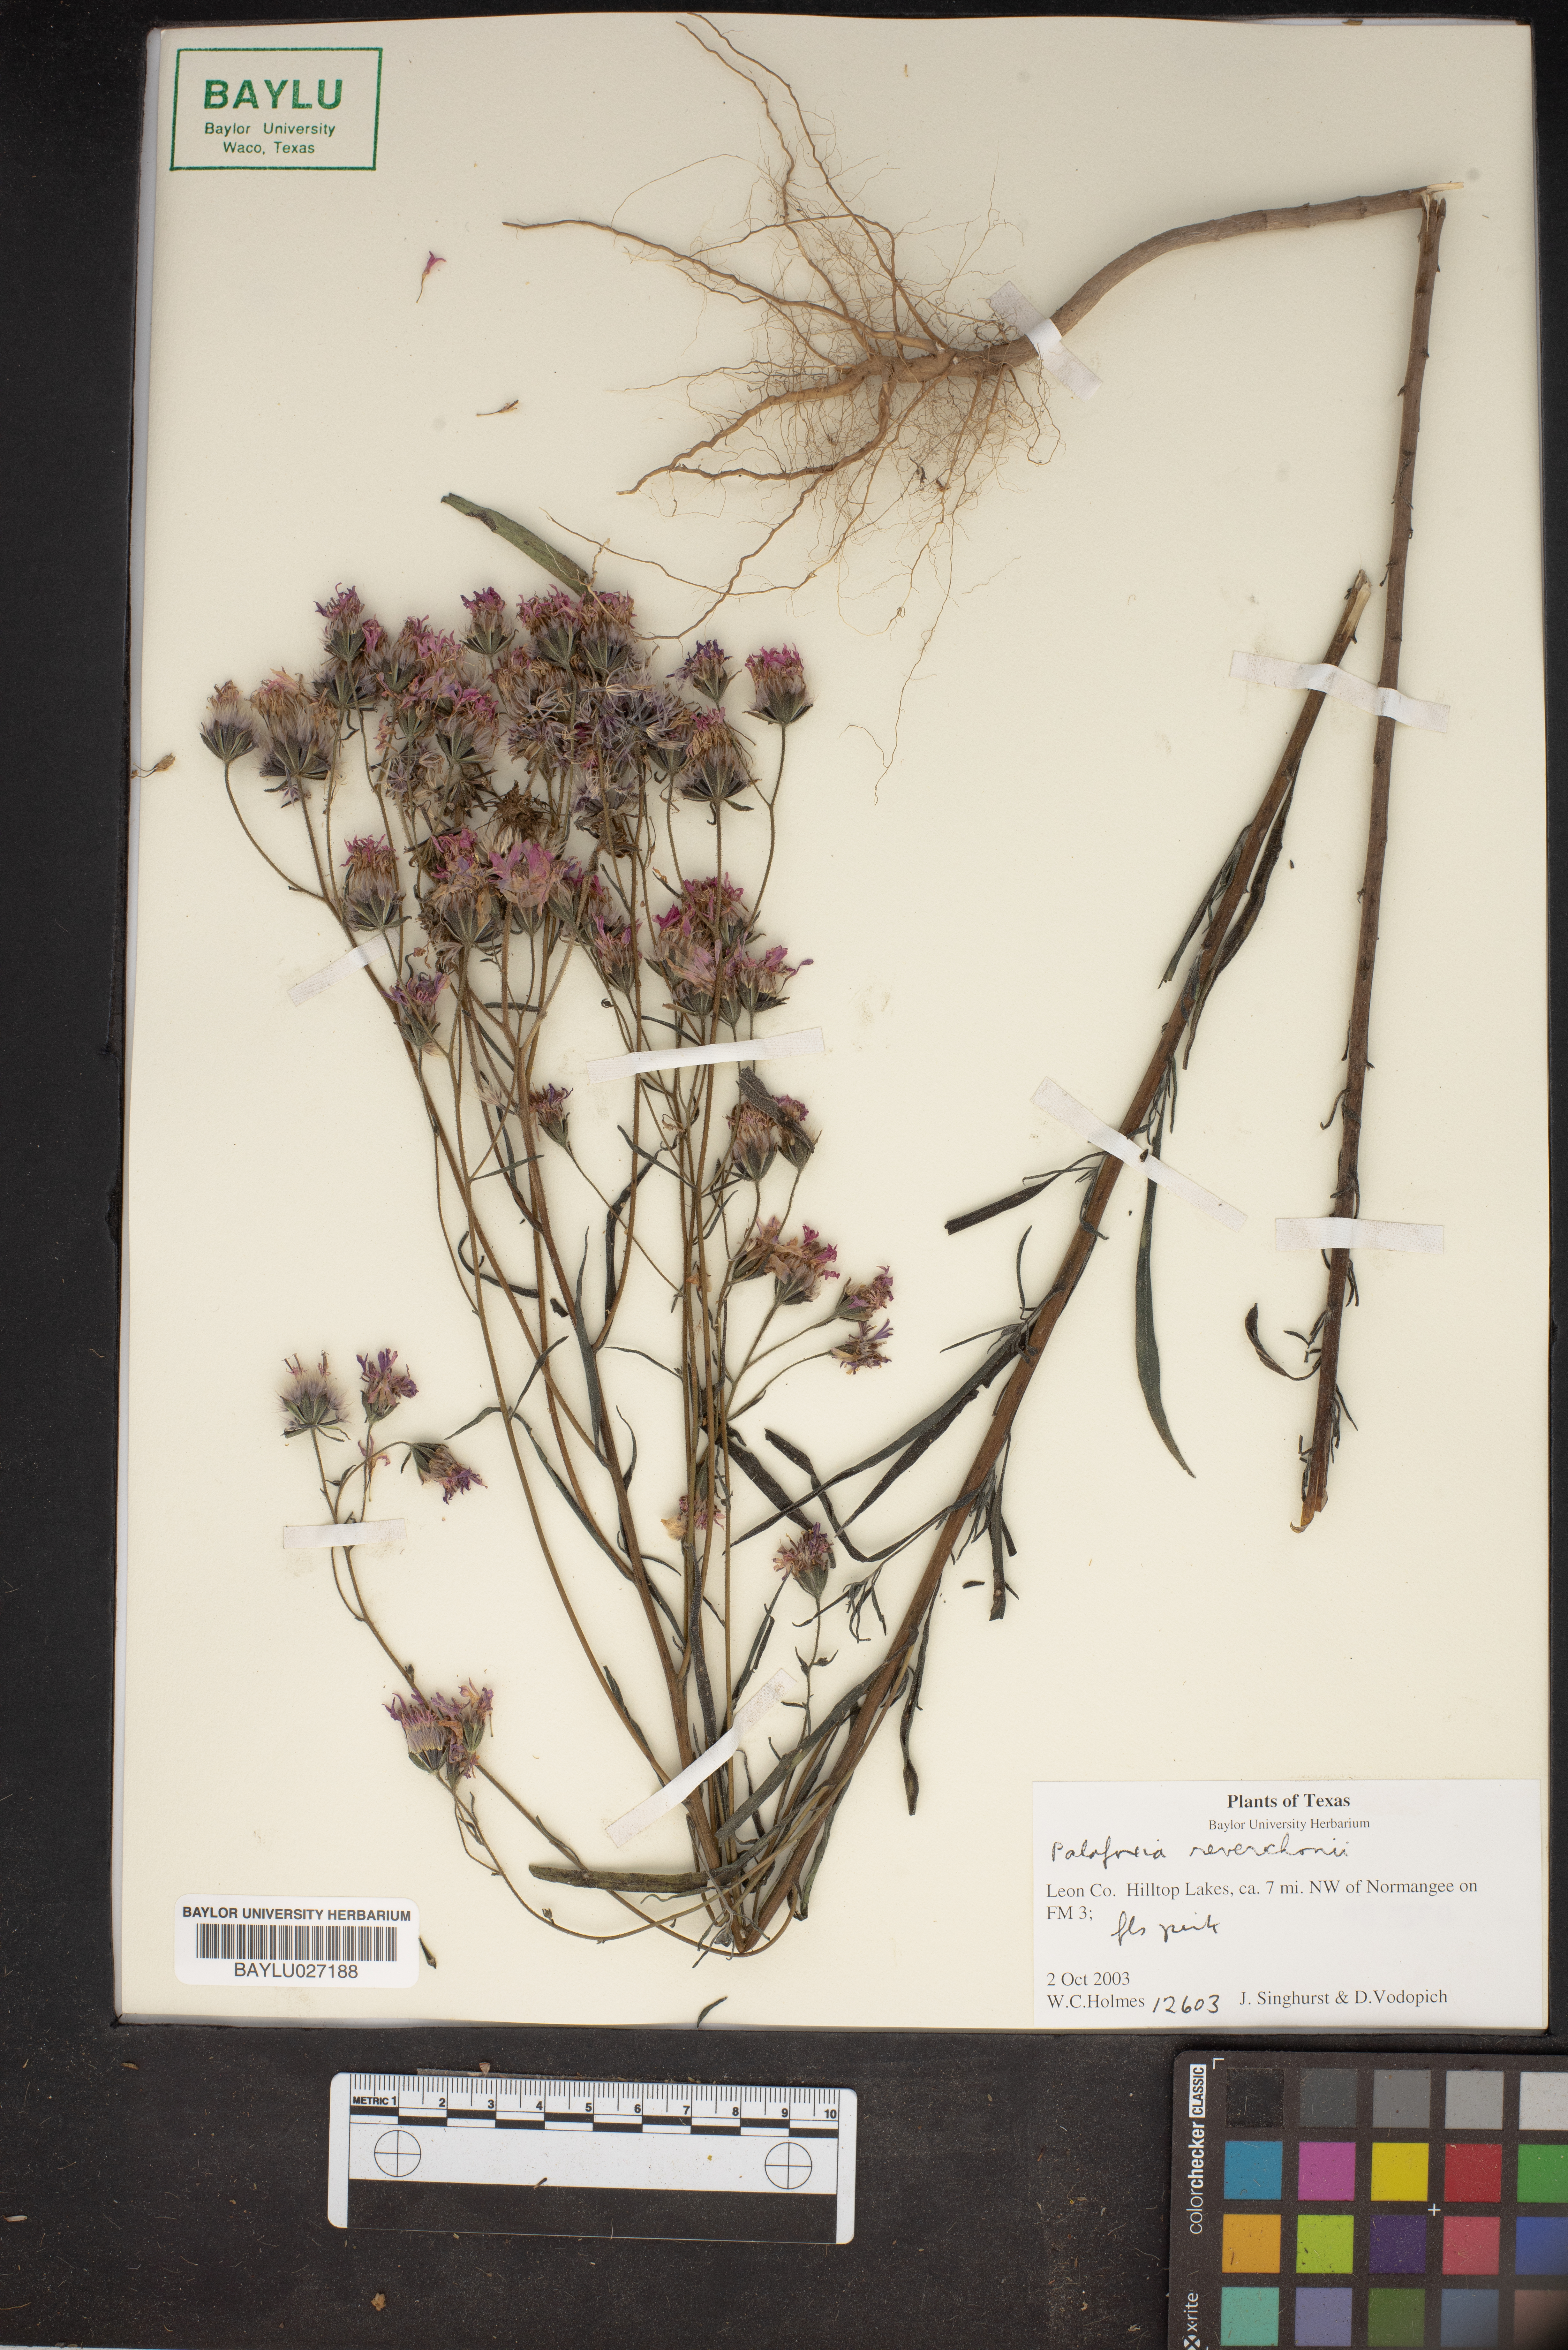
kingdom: Plantae
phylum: Tracheophyta
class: Magnoliopsida
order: Asterales
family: Asteraceae
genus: Palafoxia
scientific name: Palafoxia reverchonii
